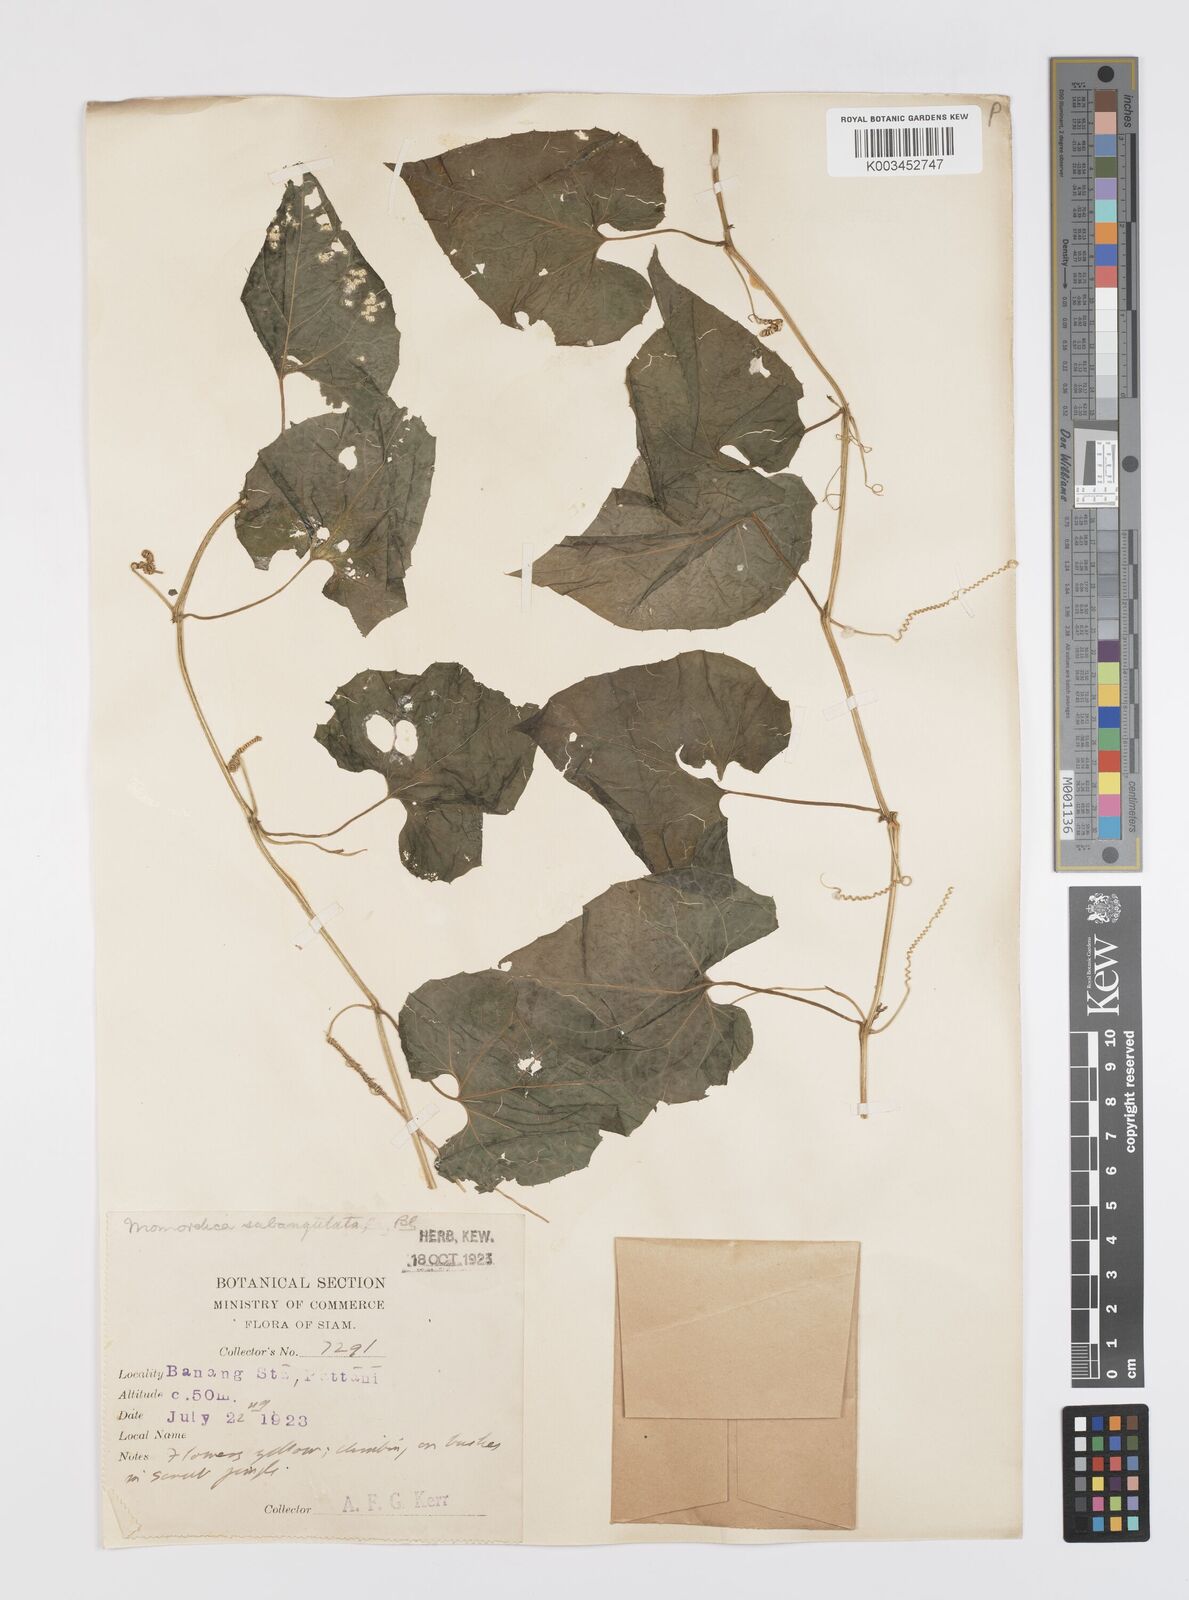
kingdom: Plantae
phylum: Tracheophyta
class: Magnoliopsida
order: Cucurbitales
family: Cucurbitaceae
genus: Momordica
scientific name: Momordica subangulata
